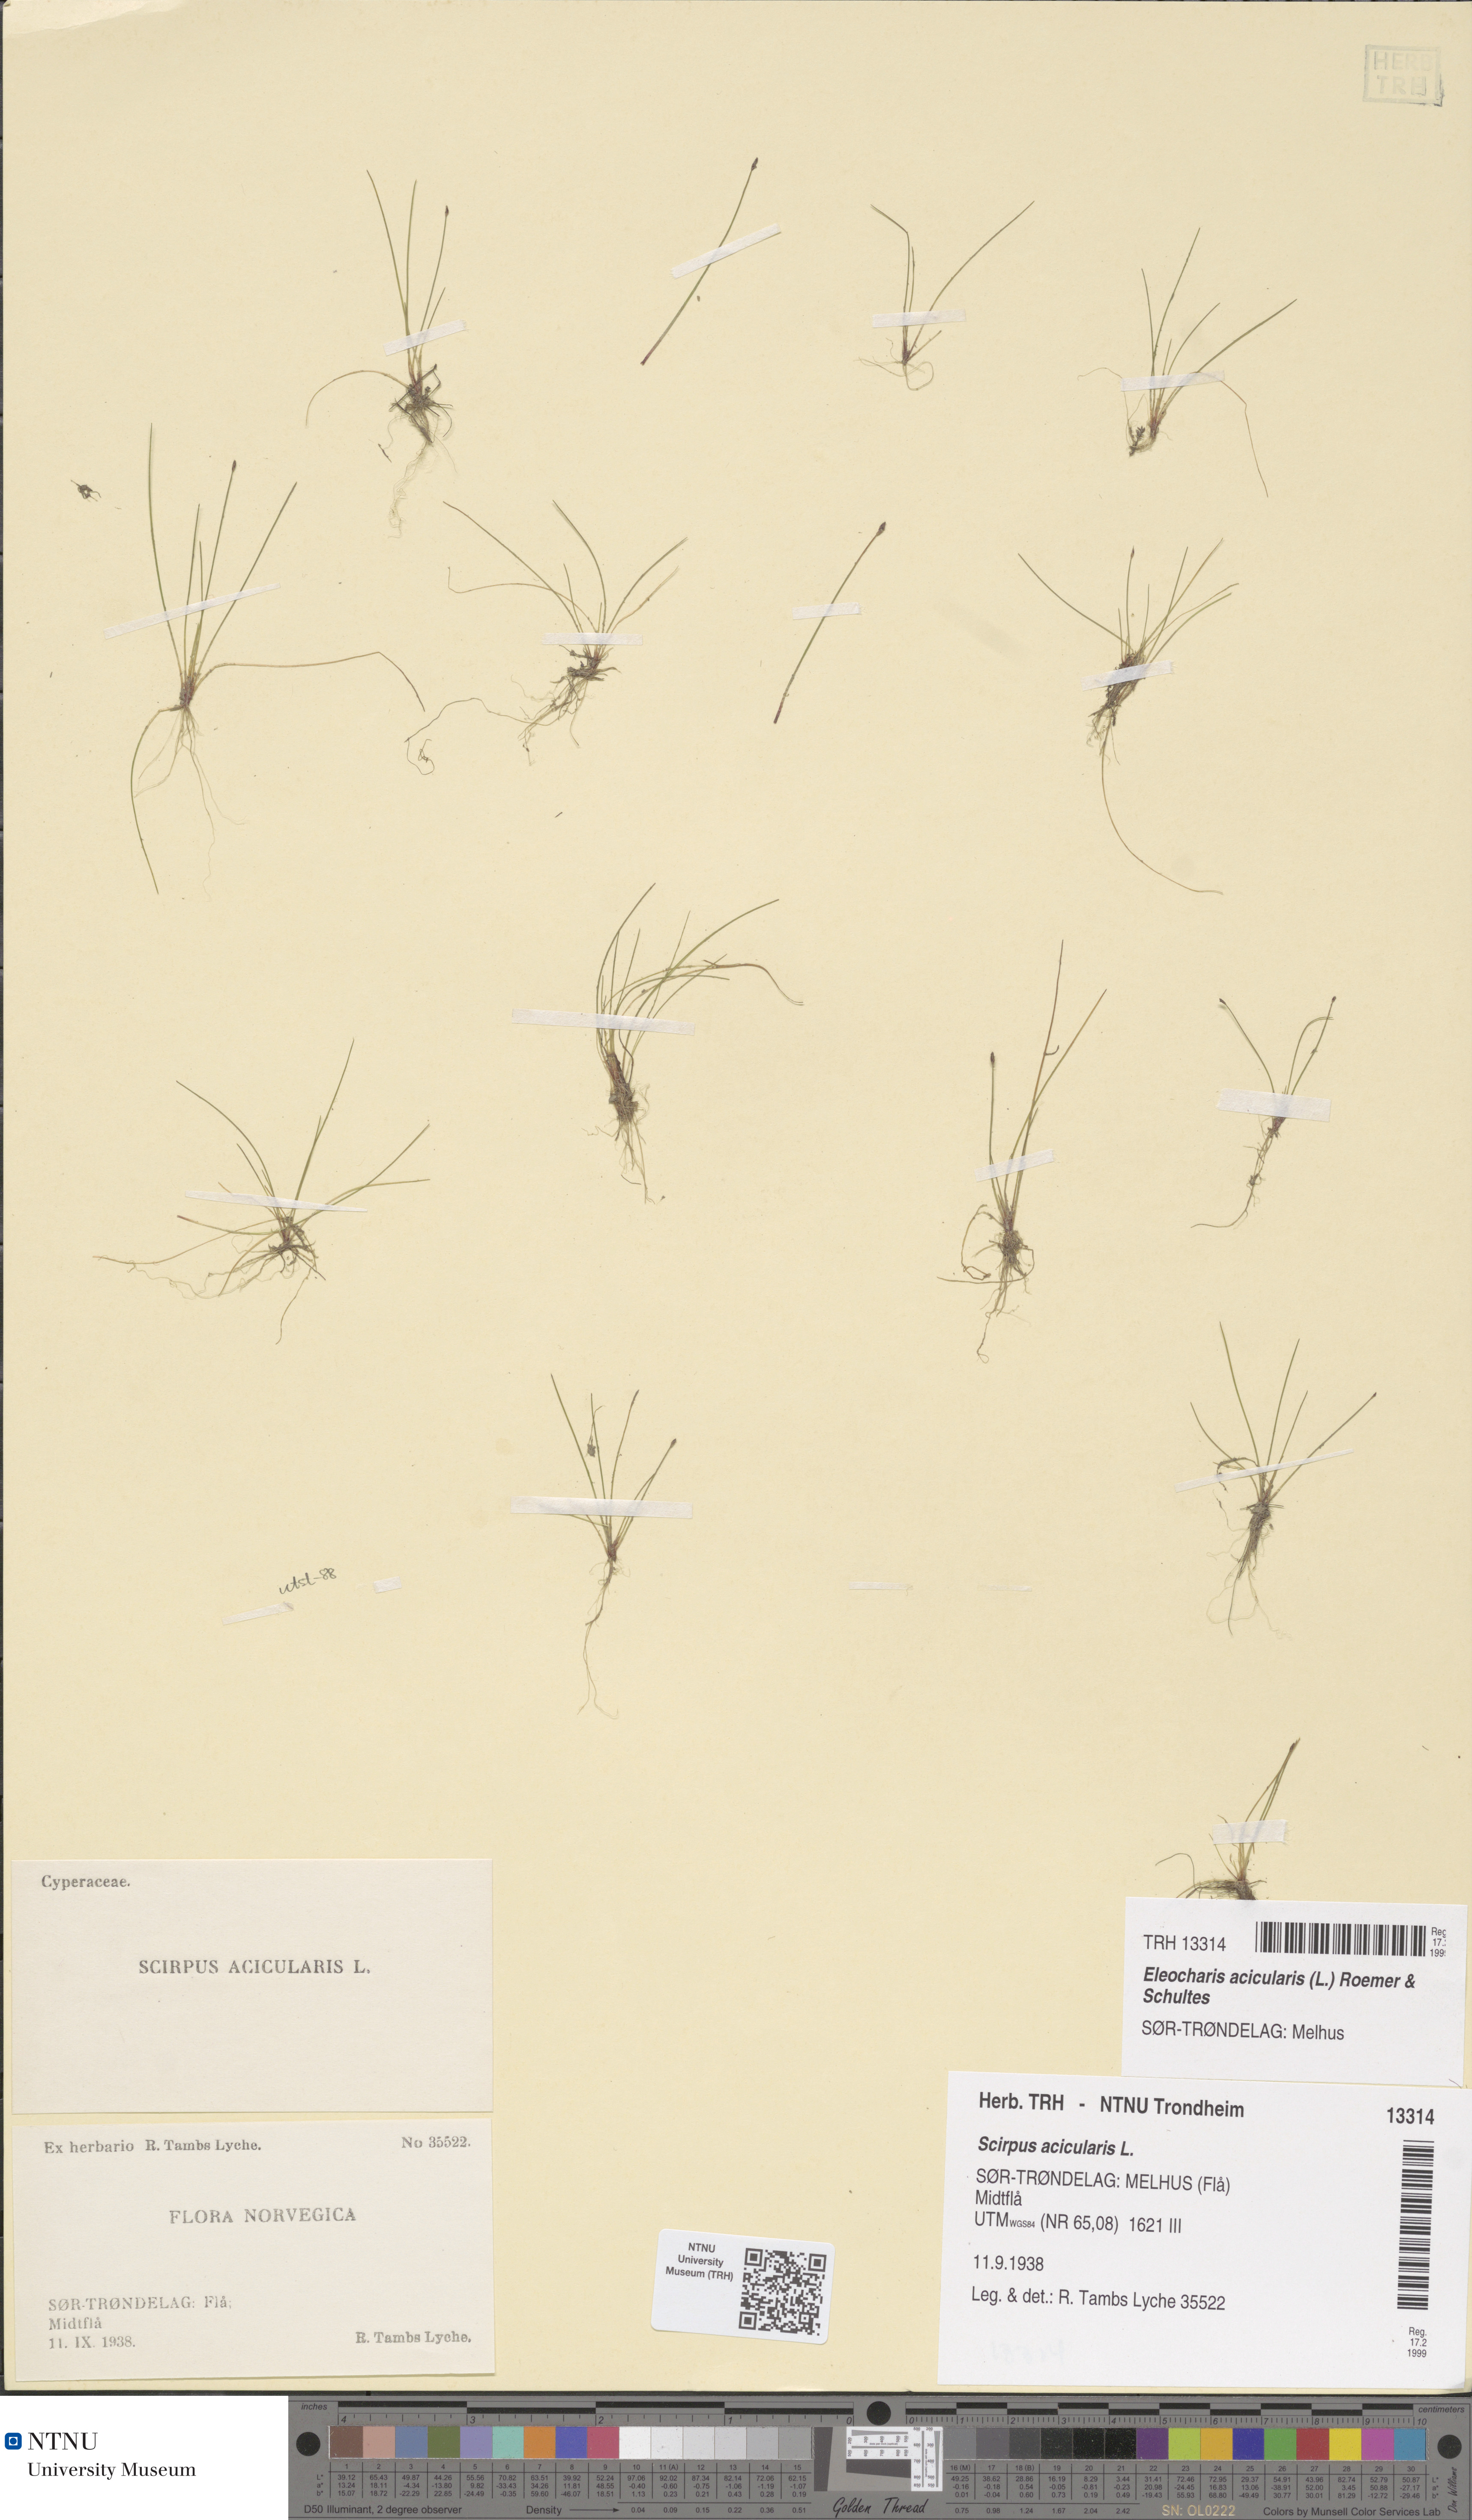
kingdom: Plantae
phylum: Tracheophyta
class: Liliopsida
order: Poales
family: Cyperaceae
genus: Eleocharis
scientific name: Eleocharis acicularis
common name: Needle spike-rush
